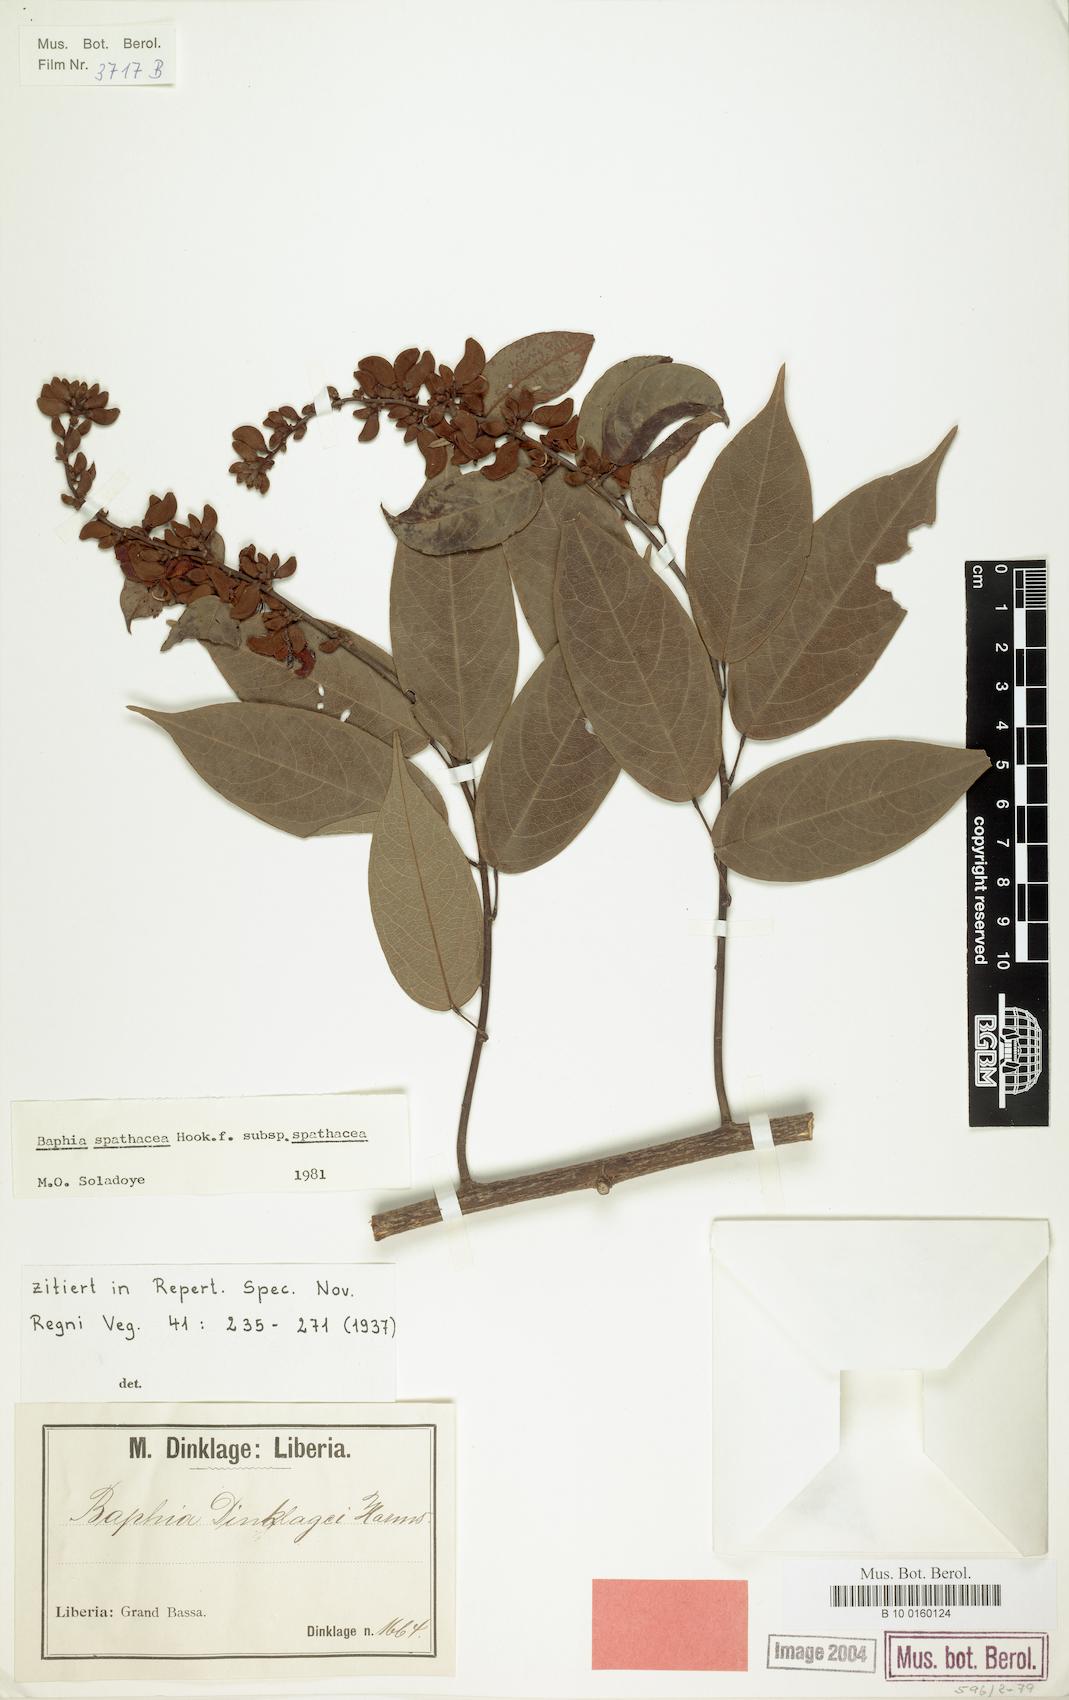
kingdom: Plantae
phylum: Tracheophyta
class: Magnoliopsida
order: Fabales
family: Fabaceae
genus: Baphia
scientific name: Baphia spathacea
